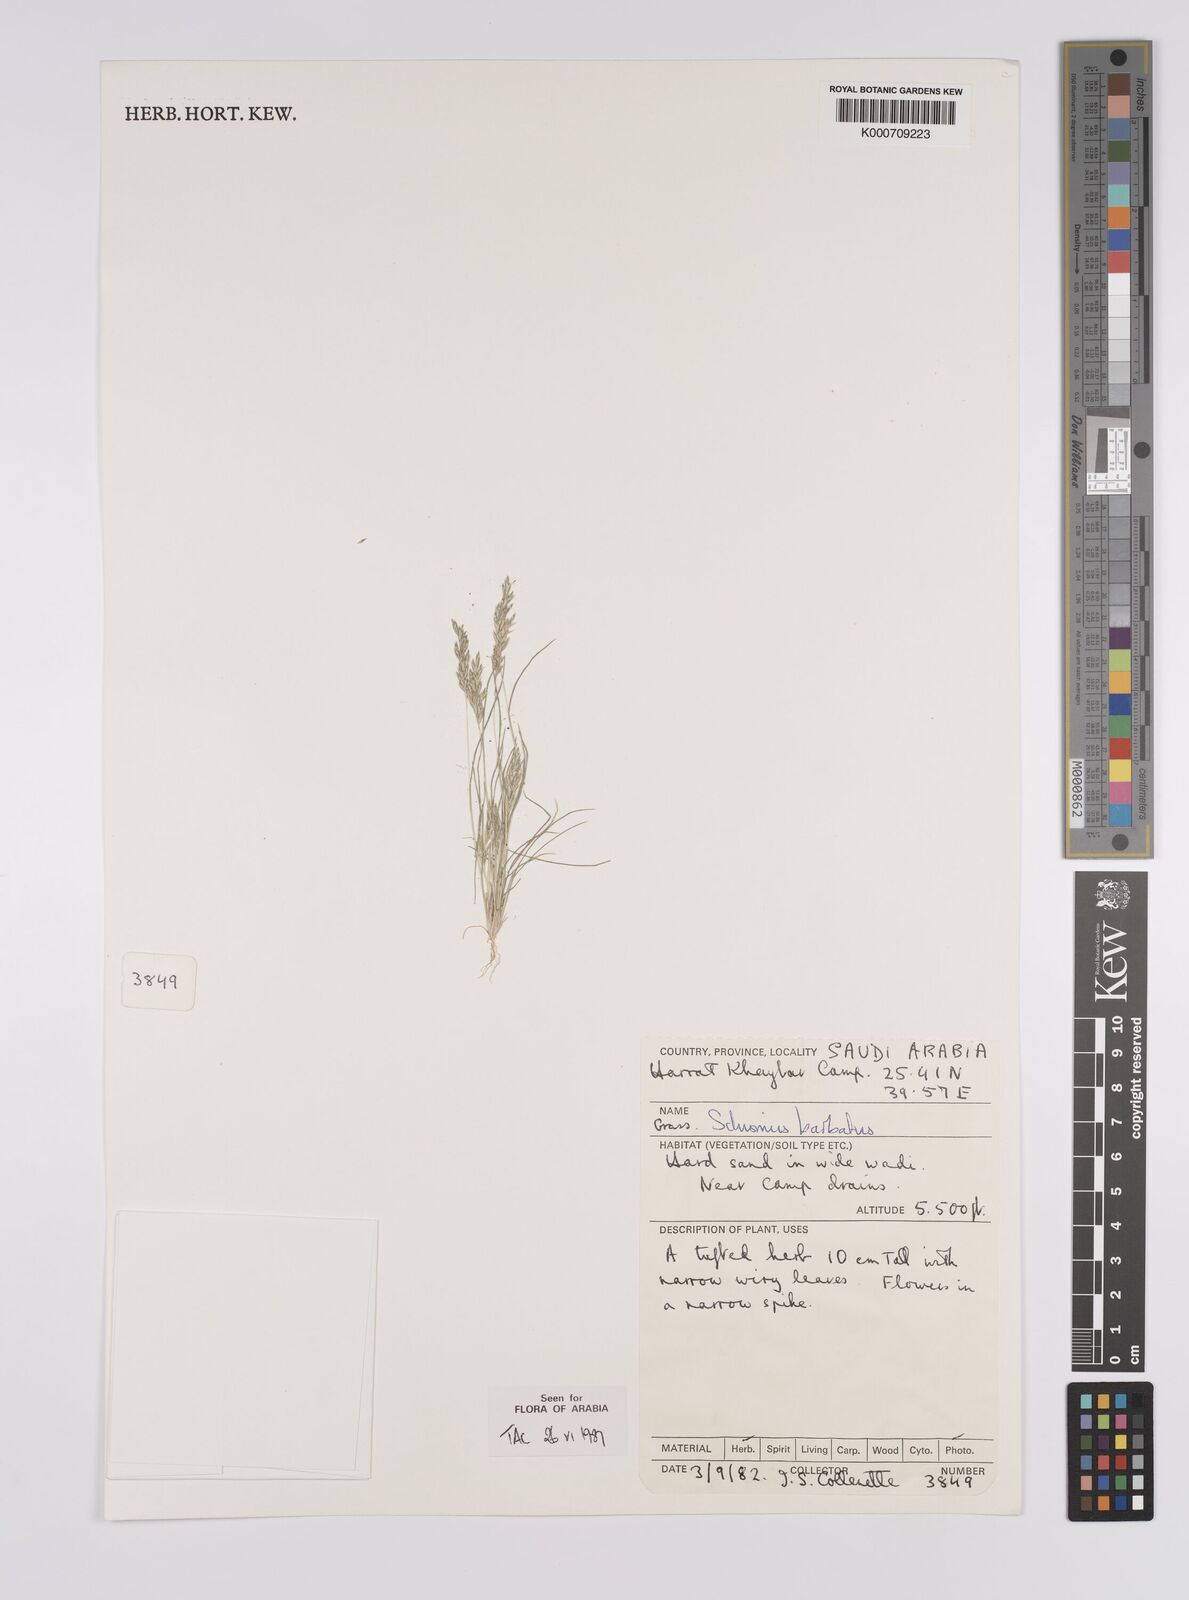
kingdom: Plantae
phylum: Tracheophyta
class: Liliopsida
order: Poales
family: Poaceae
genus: Schismus
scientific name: Schismus barbatus
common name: Kelch-grass
